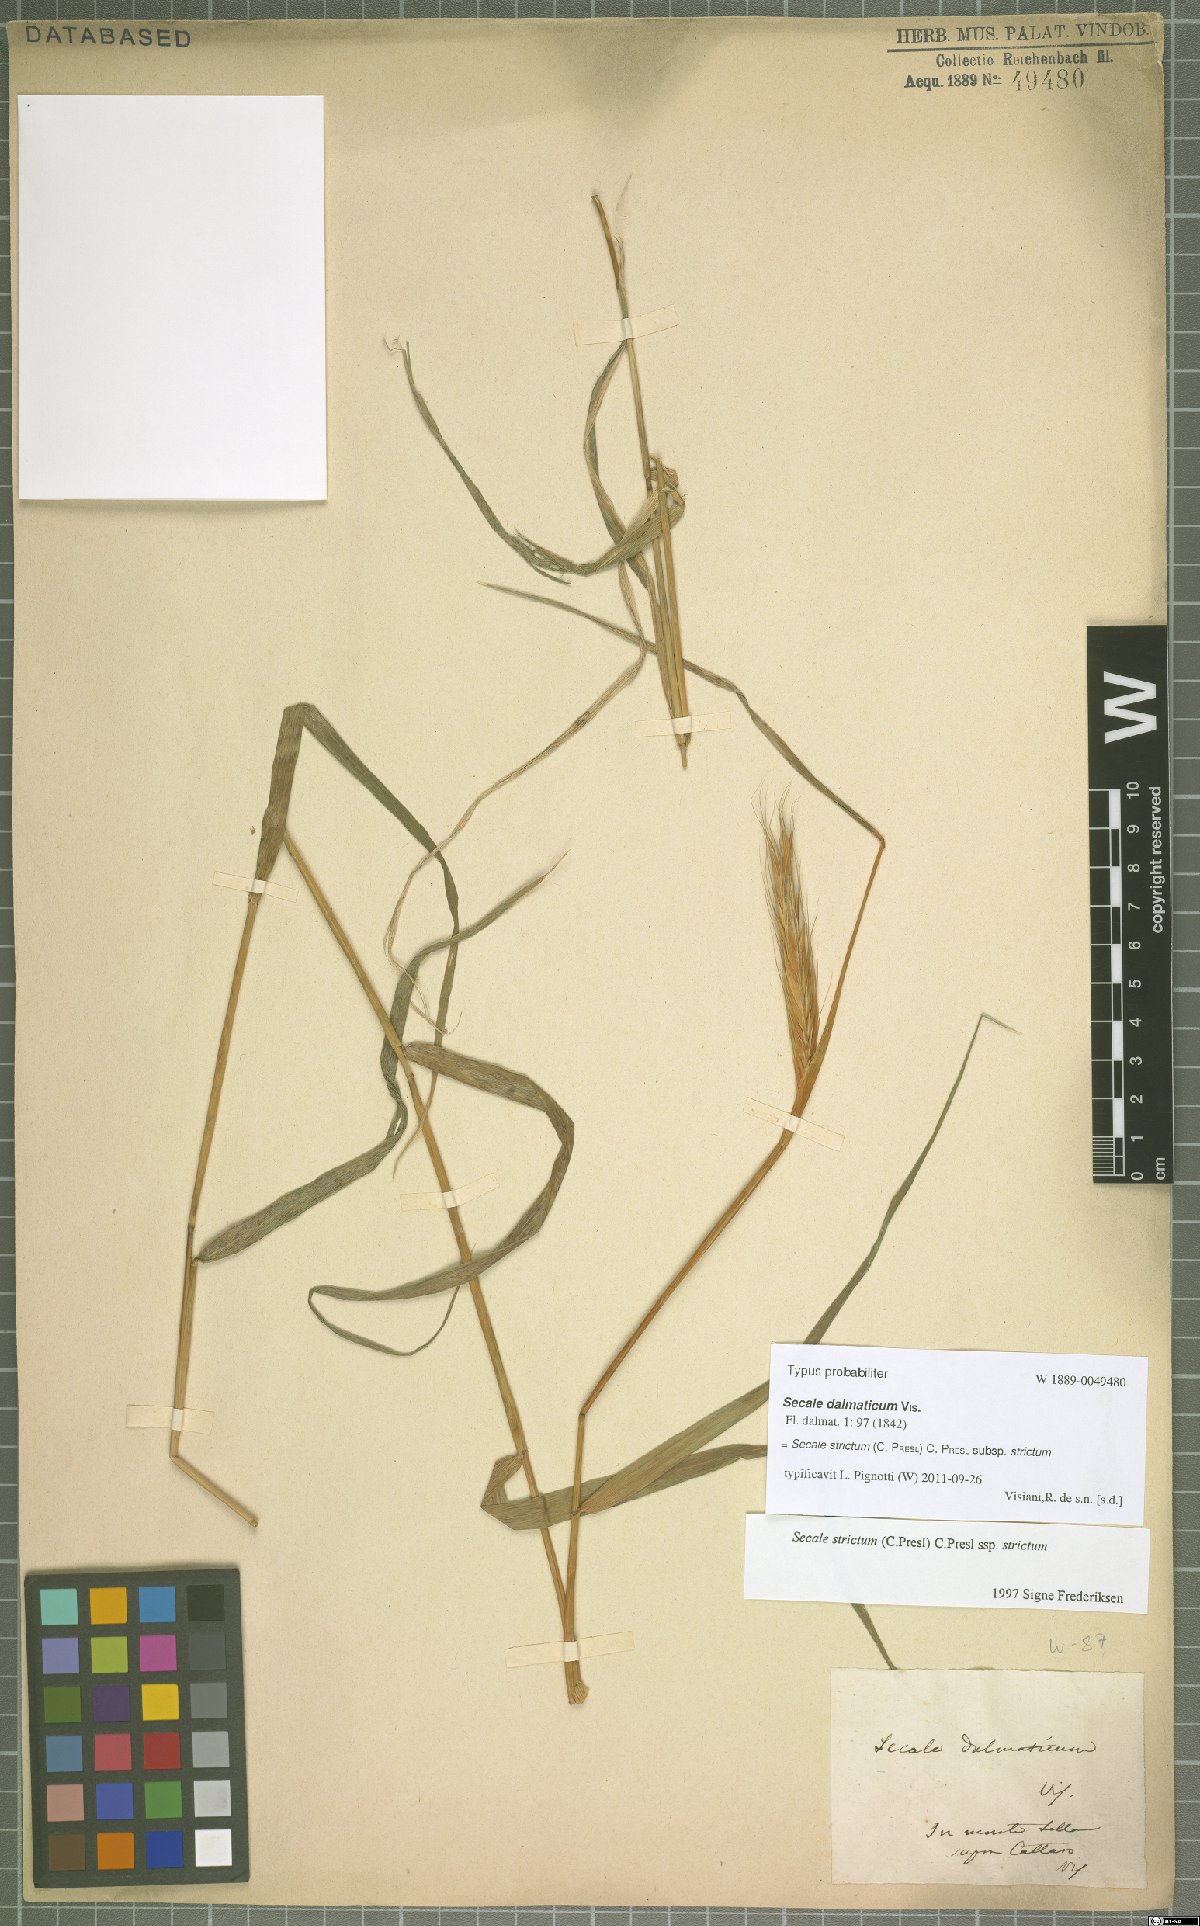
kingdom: Plantae
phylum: Tracheophyta
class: Liliopsida
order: Poales
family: Poaceae
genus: Secale
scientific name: Secale strictum
